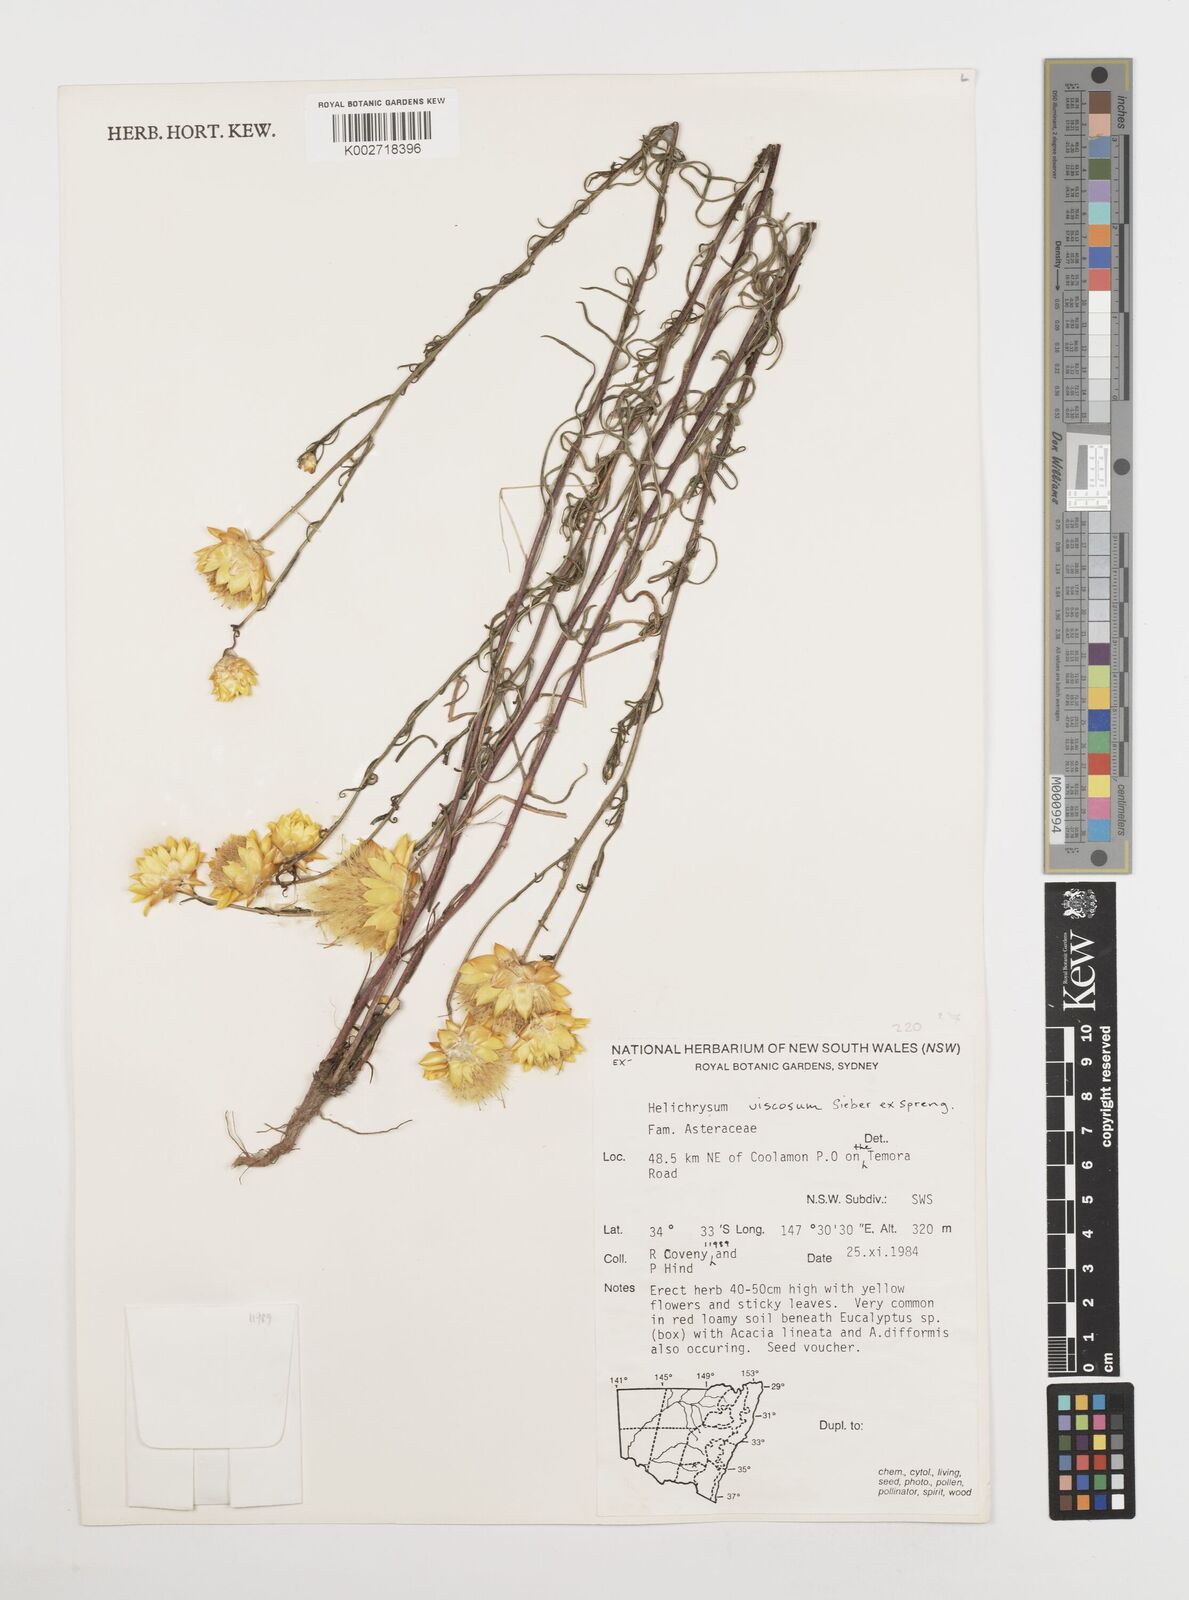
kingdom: Plantae
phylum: Tracheophyta
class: Magnoliopsida
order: Asterales
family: Asteraceae
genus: Xerochrysum
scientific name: Xerochrysum viscosum
